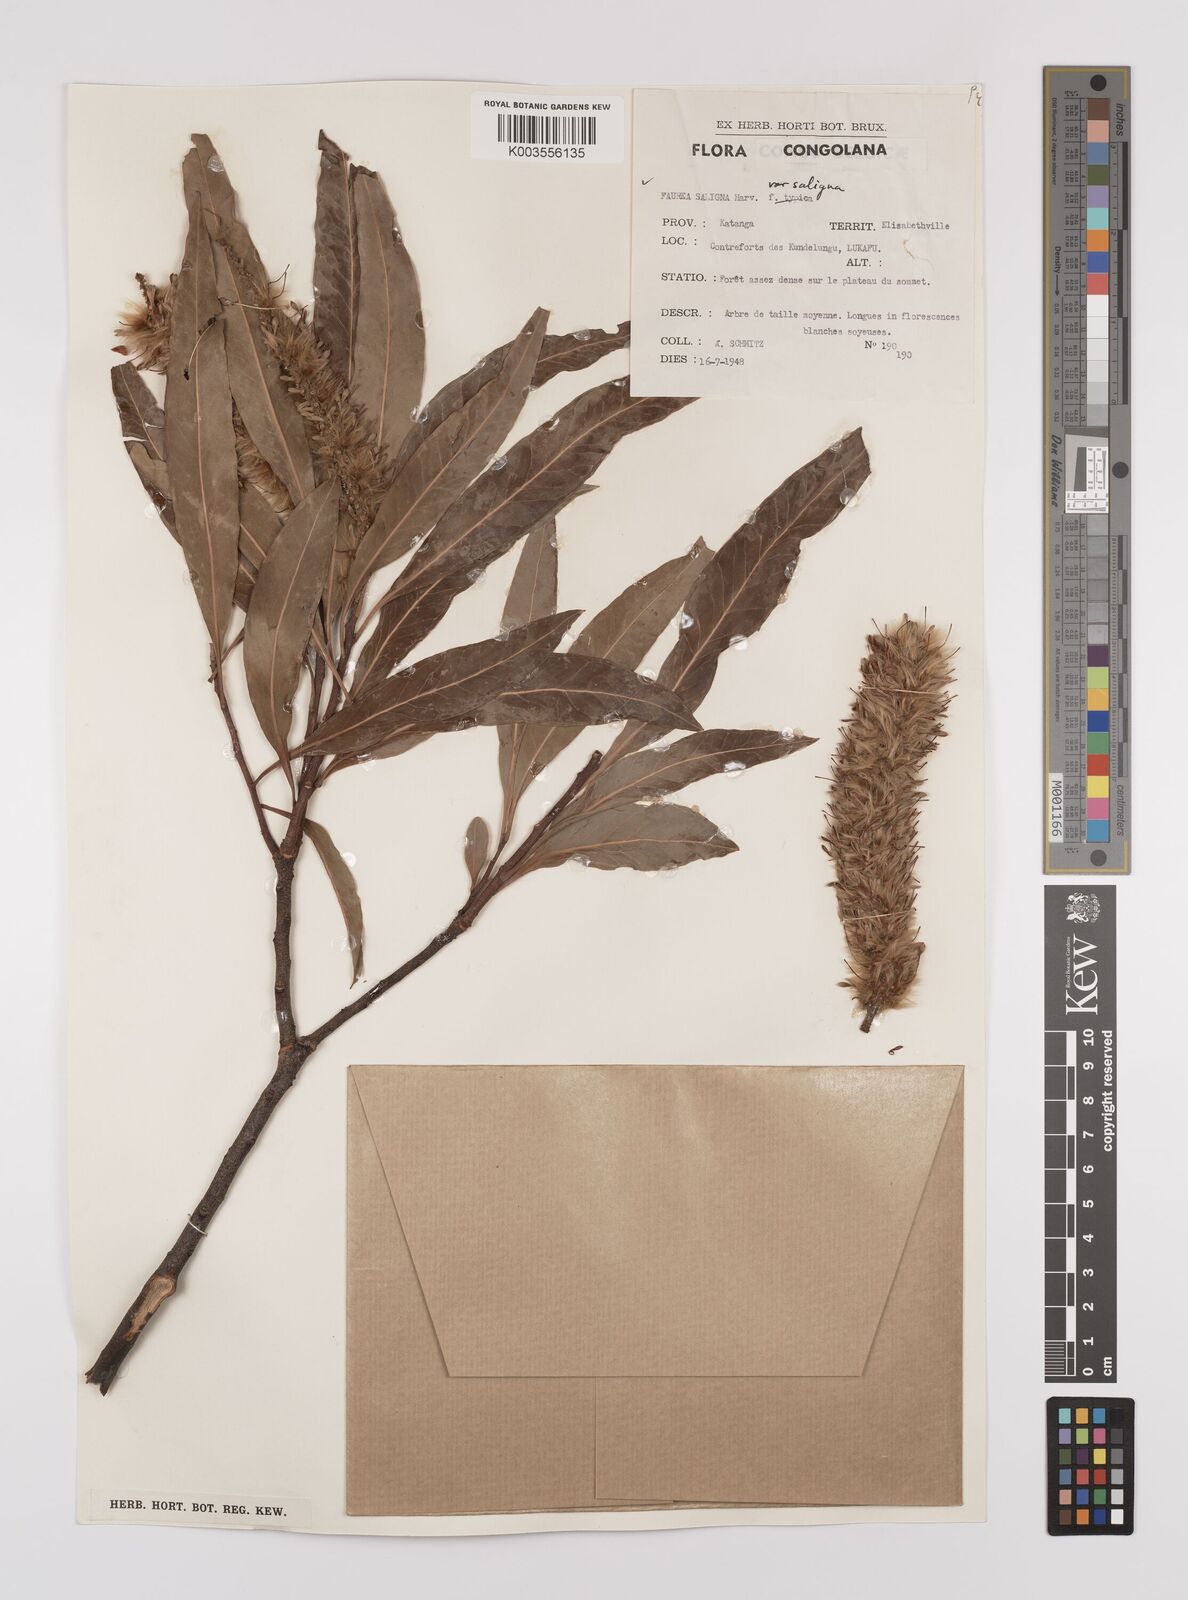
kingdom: Plantae
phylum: Tracheophyta
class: Magnoliopsida
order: Proteales
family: Proteaceae
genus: Faurea
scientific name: Faurea saligna
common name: African bean
